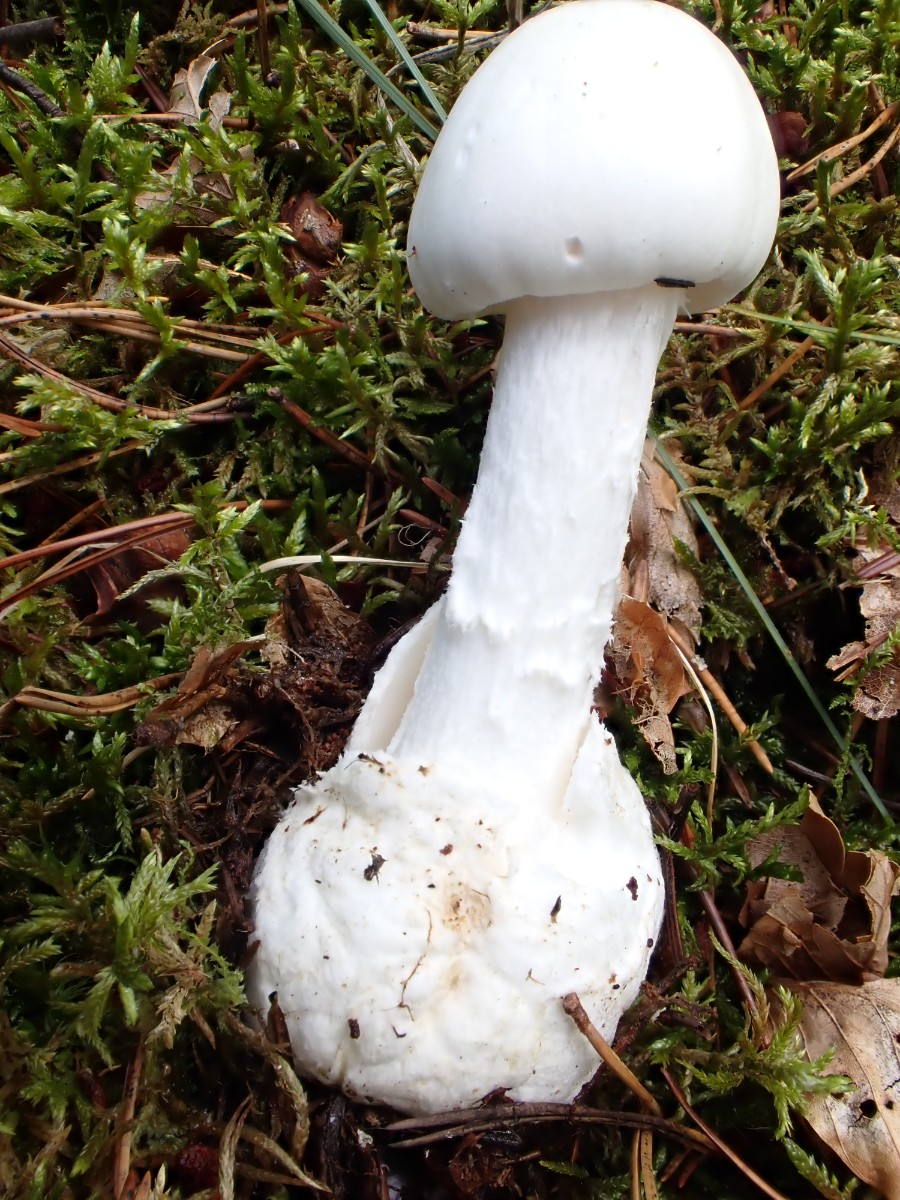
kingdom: Fungi
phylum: Basidiomycota
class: Agaricomycetes
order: Agaricales
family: Amanitaceae
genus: Amanita
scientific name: Amanita virosa
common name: snehvid fluesvamp
